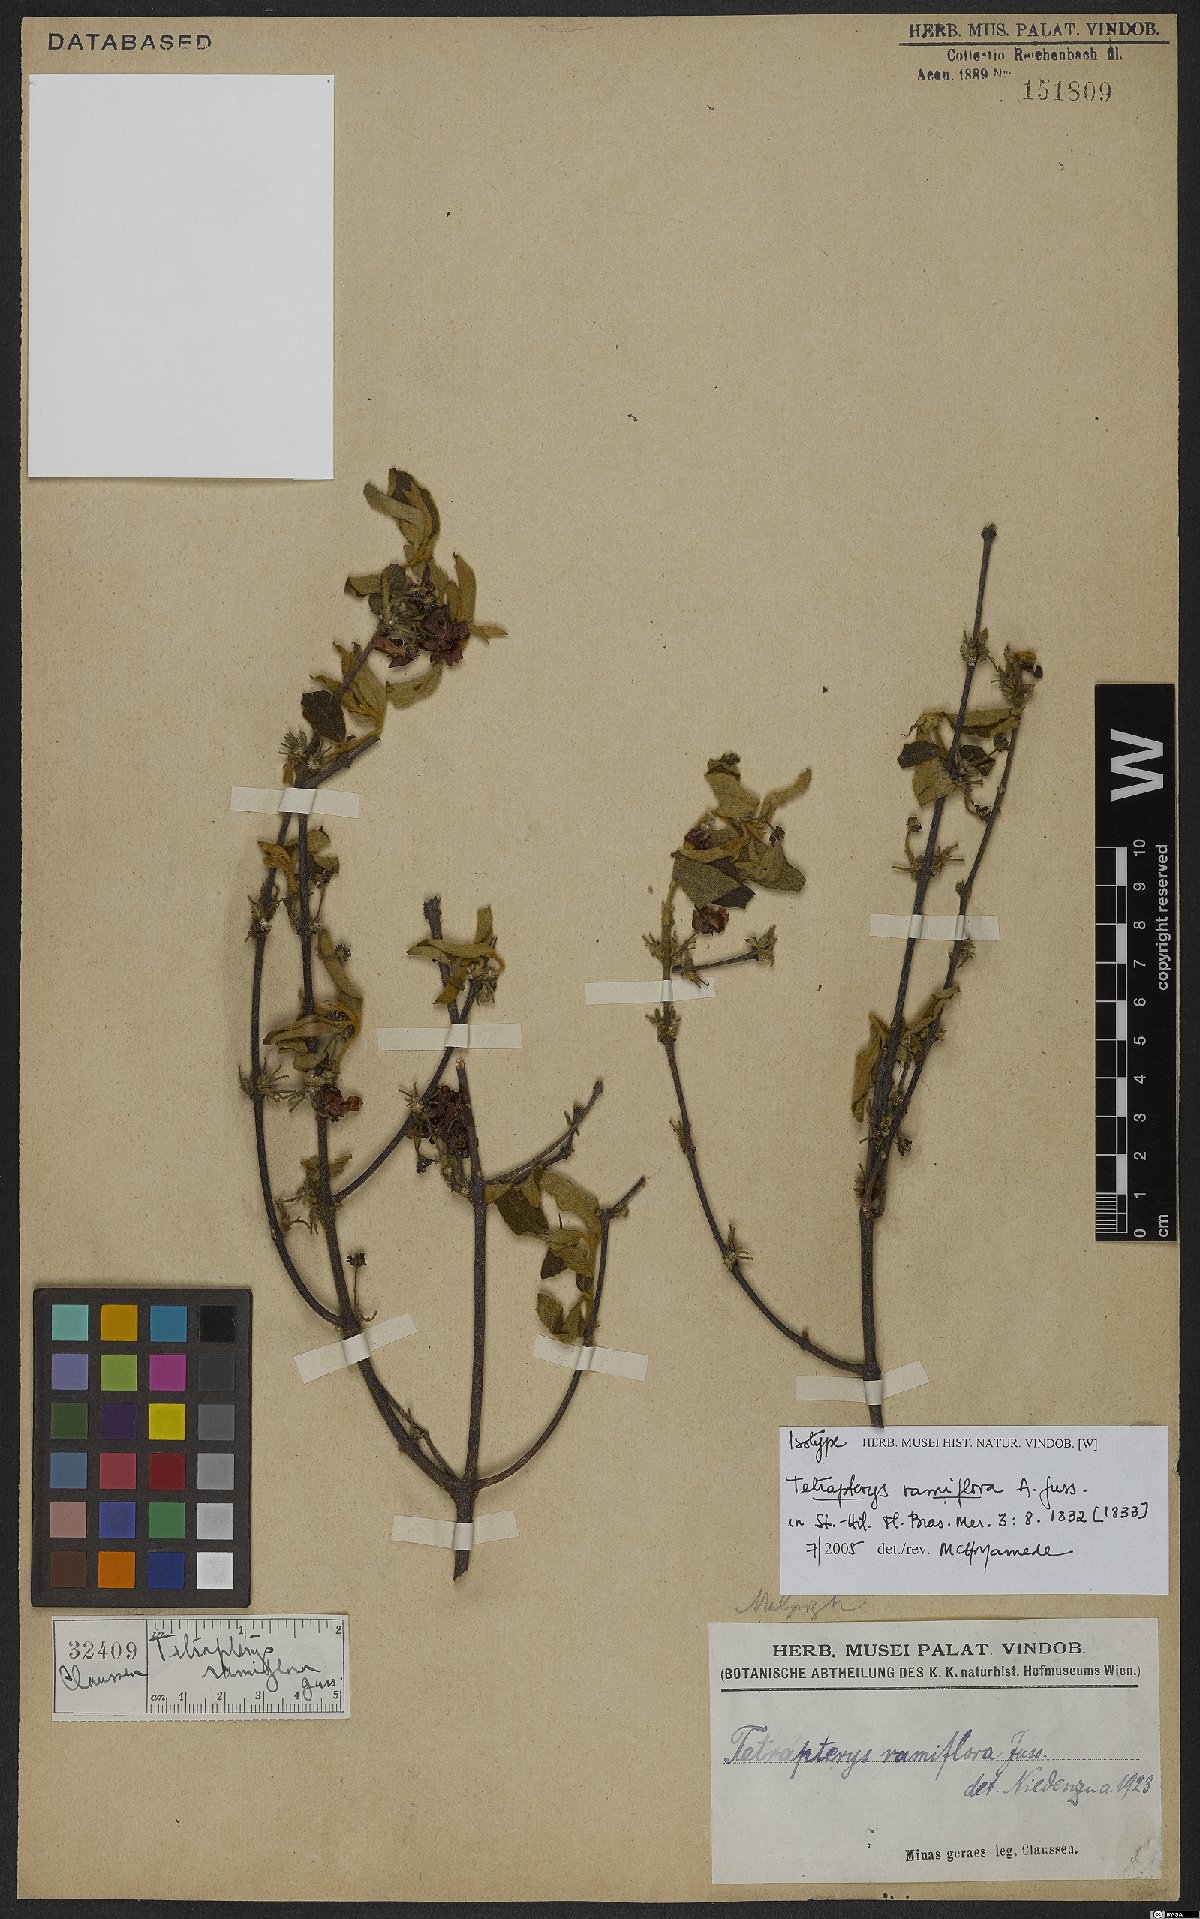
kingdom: Plantae
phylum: Tracheophyta
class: Magnoliopsida
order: Malpighiales
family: Malpighiaceae
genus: Glicophyllum
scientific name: Glicophyllum ramiflorum
